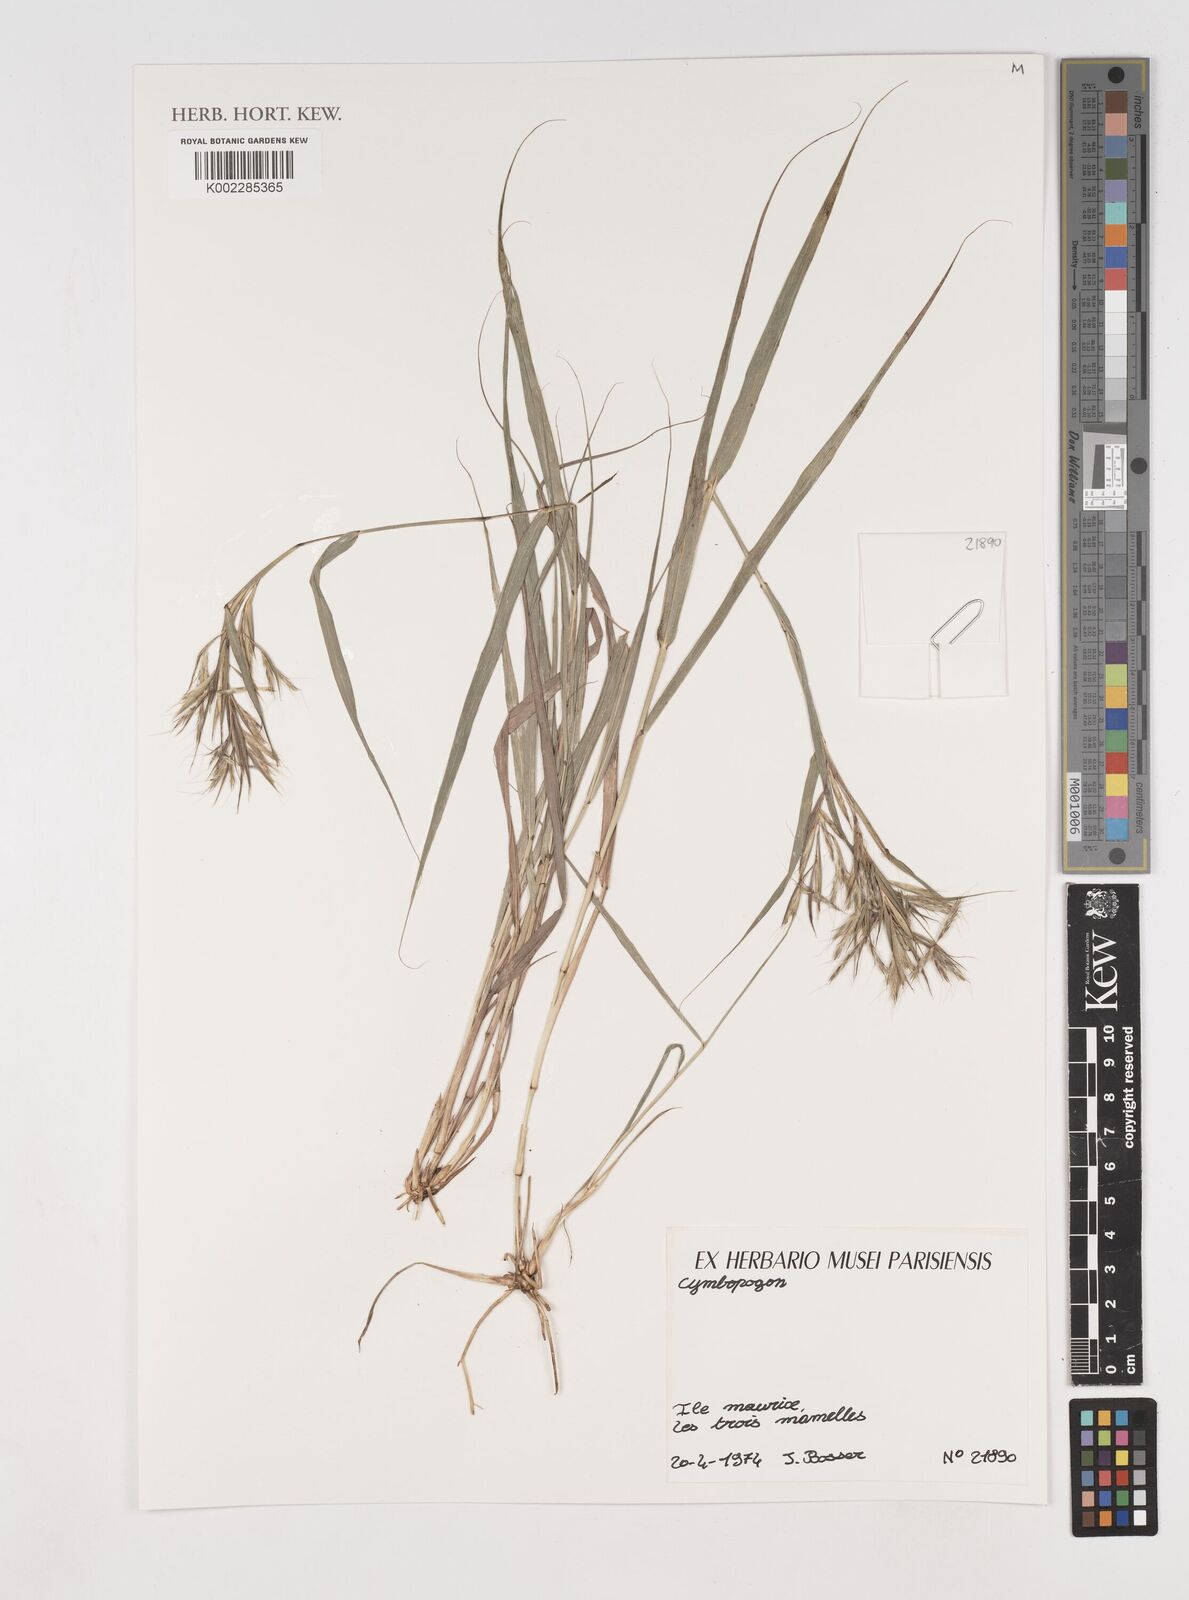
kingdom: Plantae
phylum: Tracheophyta
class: Liliopsida
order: Poales
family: Poaceae
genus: Cymbopogon
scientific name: Cymbopogon
